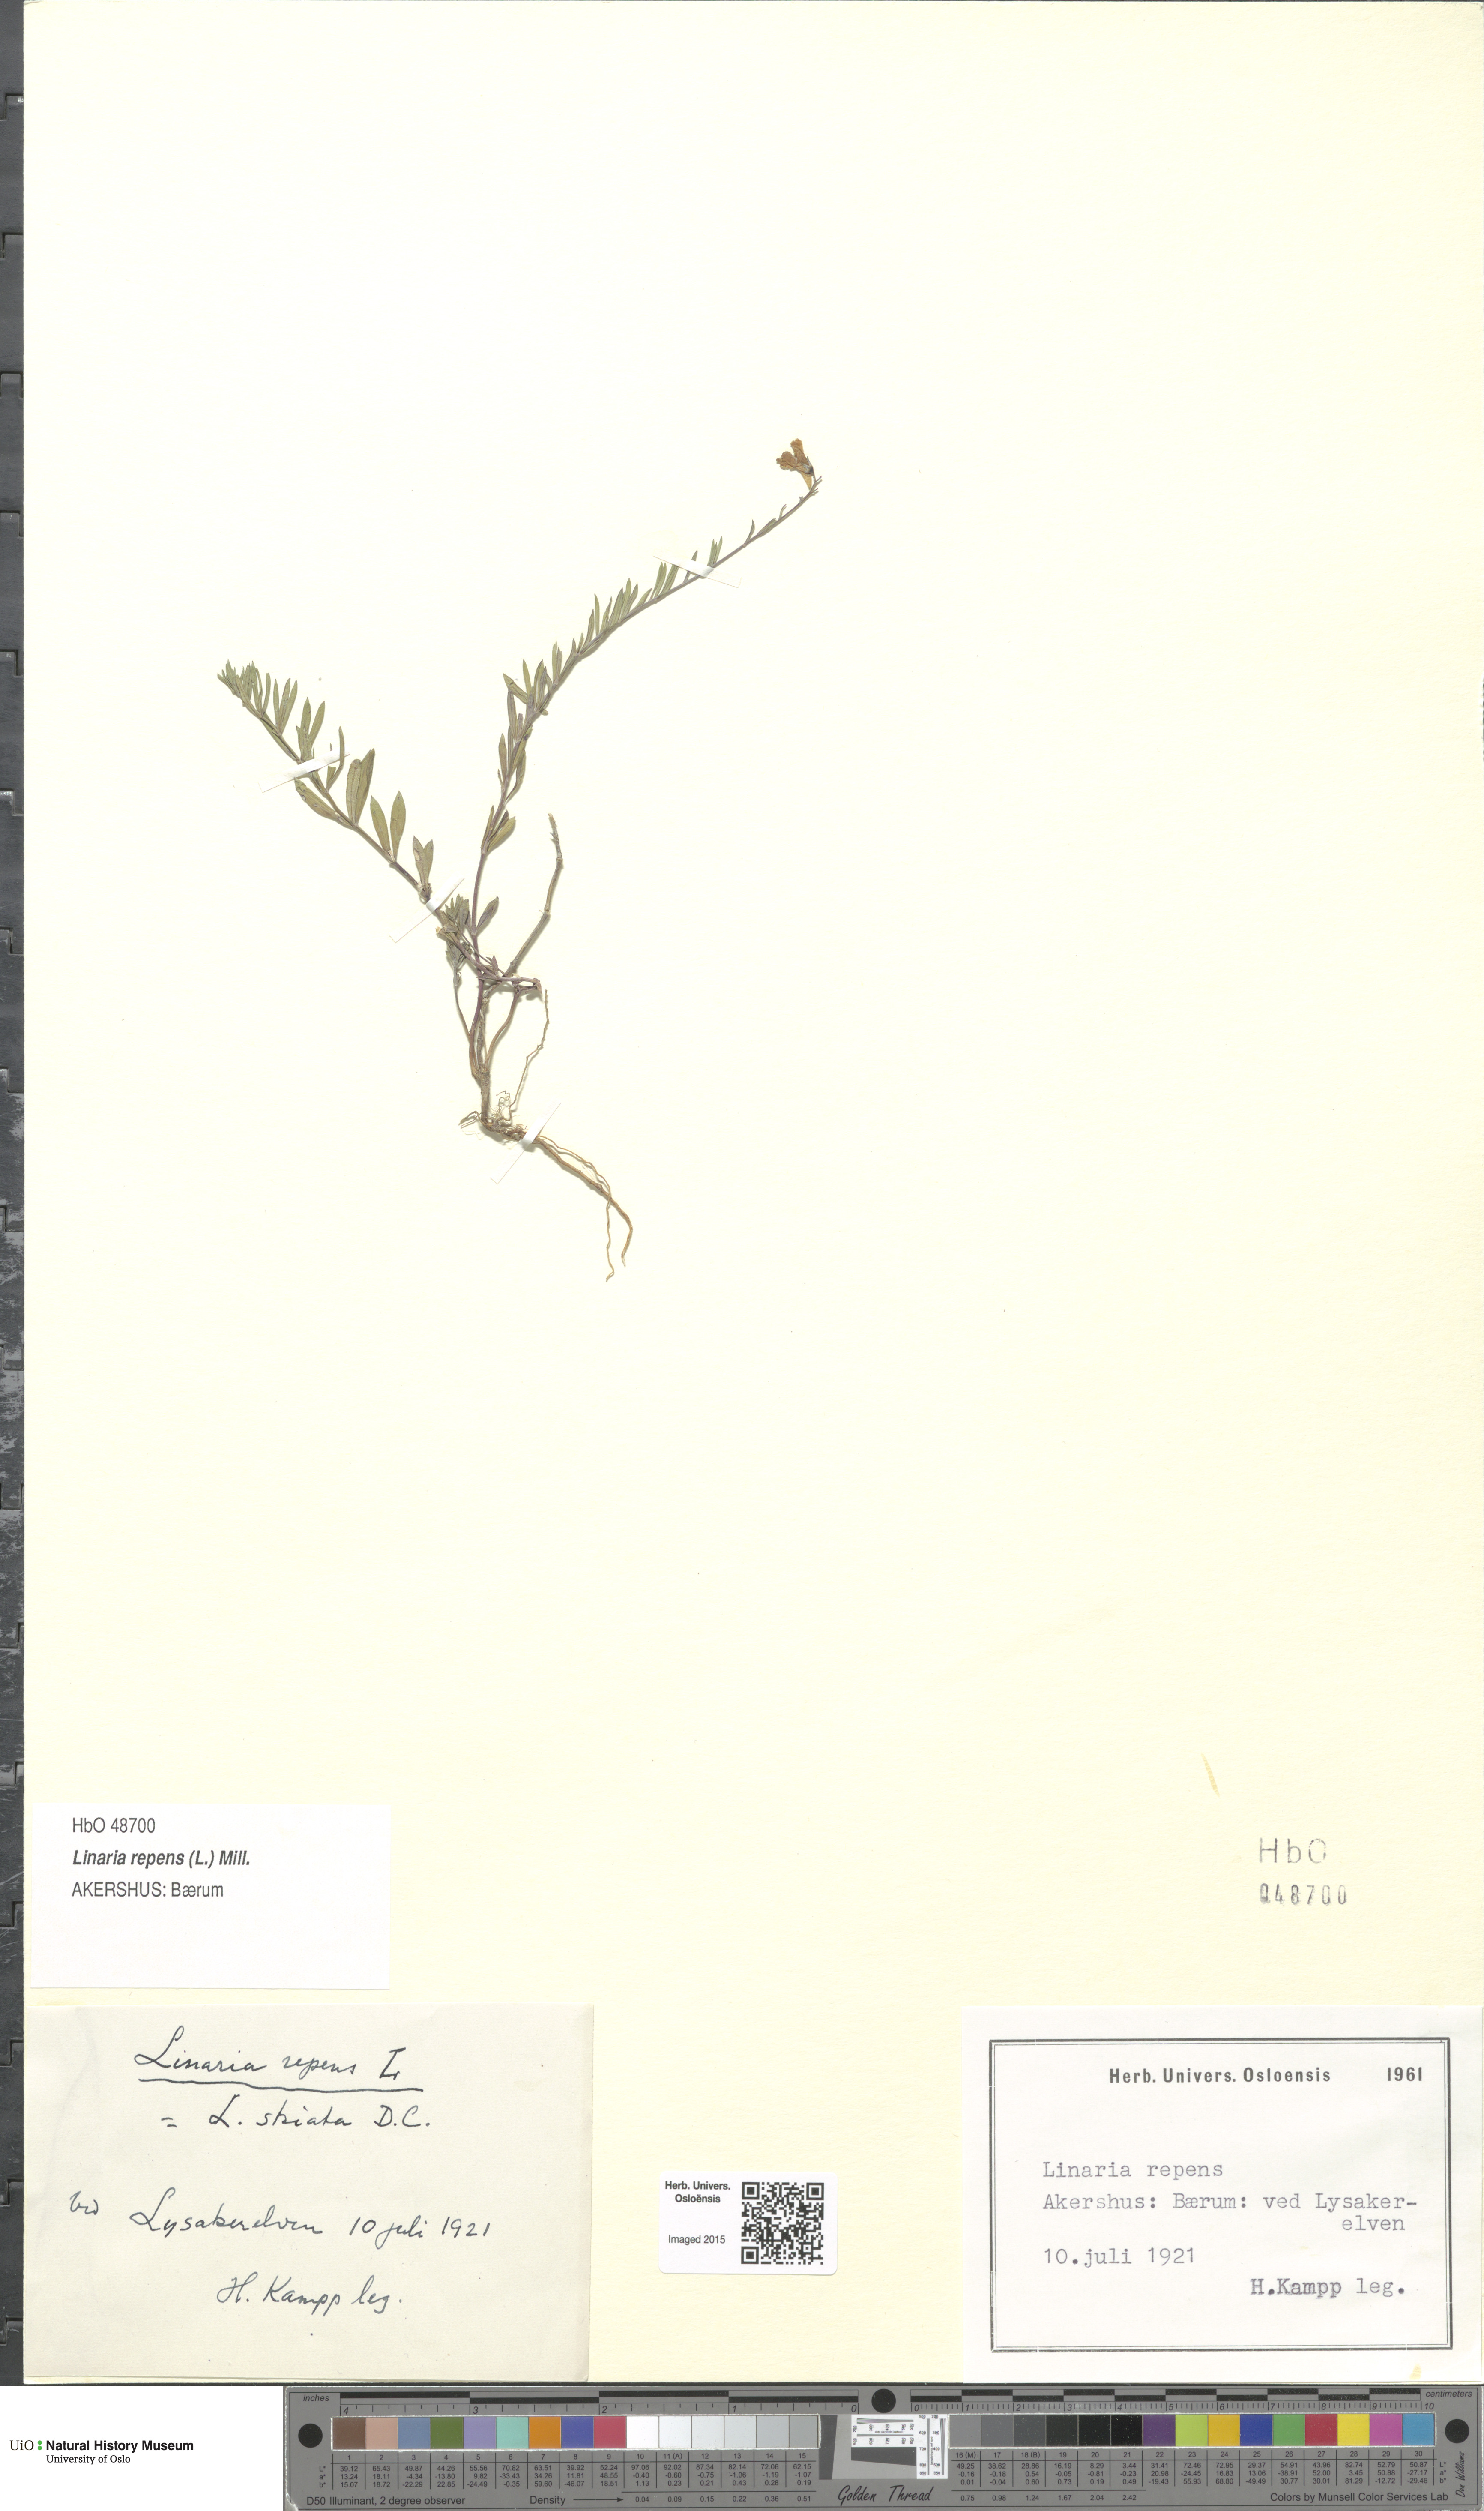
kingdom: Plantae
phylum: Tracheophyta
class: Magnoliopsida
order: Lamiales
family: Plantaginaceae
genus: Linaria
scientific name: Linaria repens
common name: Pale toadflax
